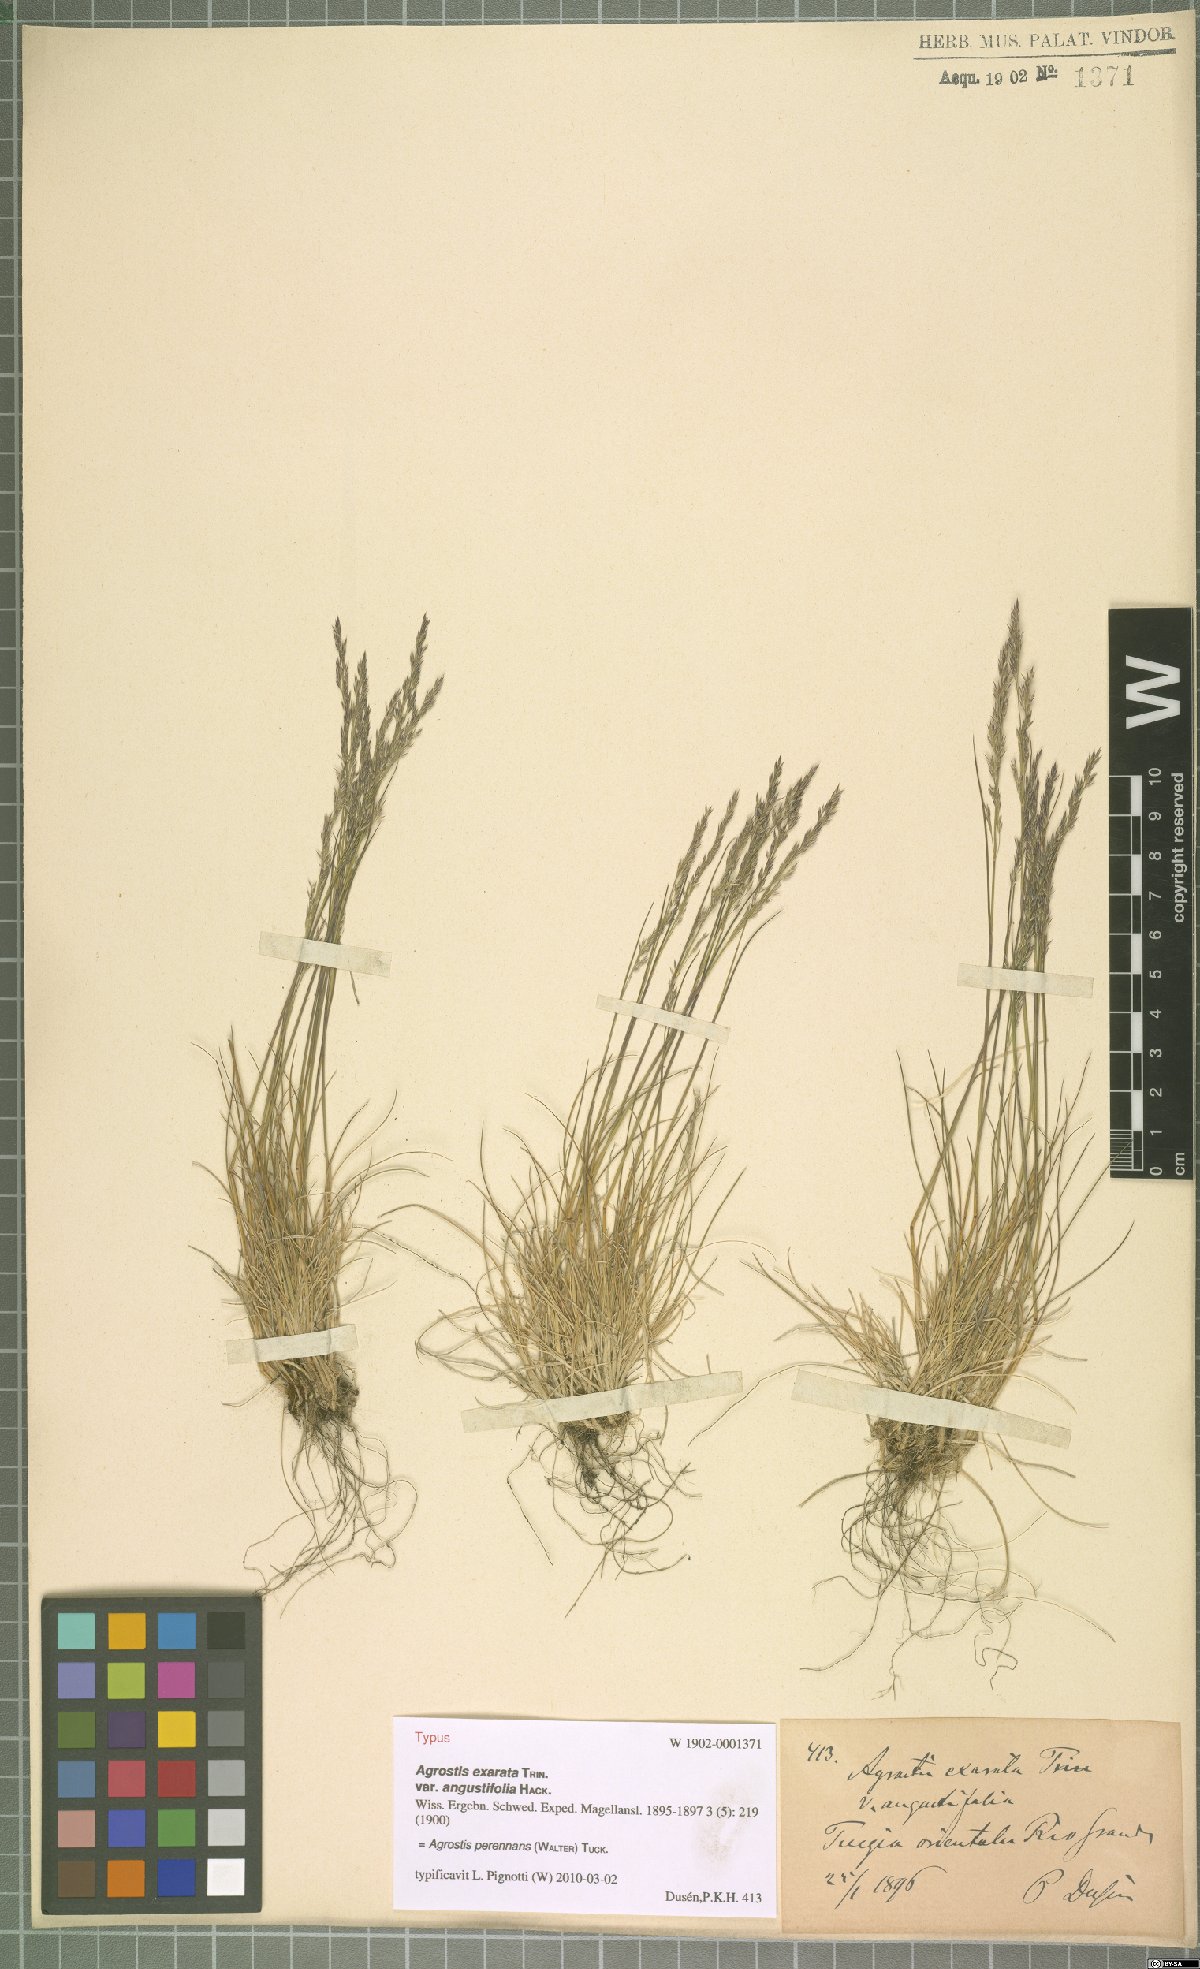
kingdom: Plantae
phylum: Tracheophyta
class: Liliopsida
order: Poales
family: Poaceae
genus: Agrostis
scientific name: Agrostis perennans
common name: Autumn bent
